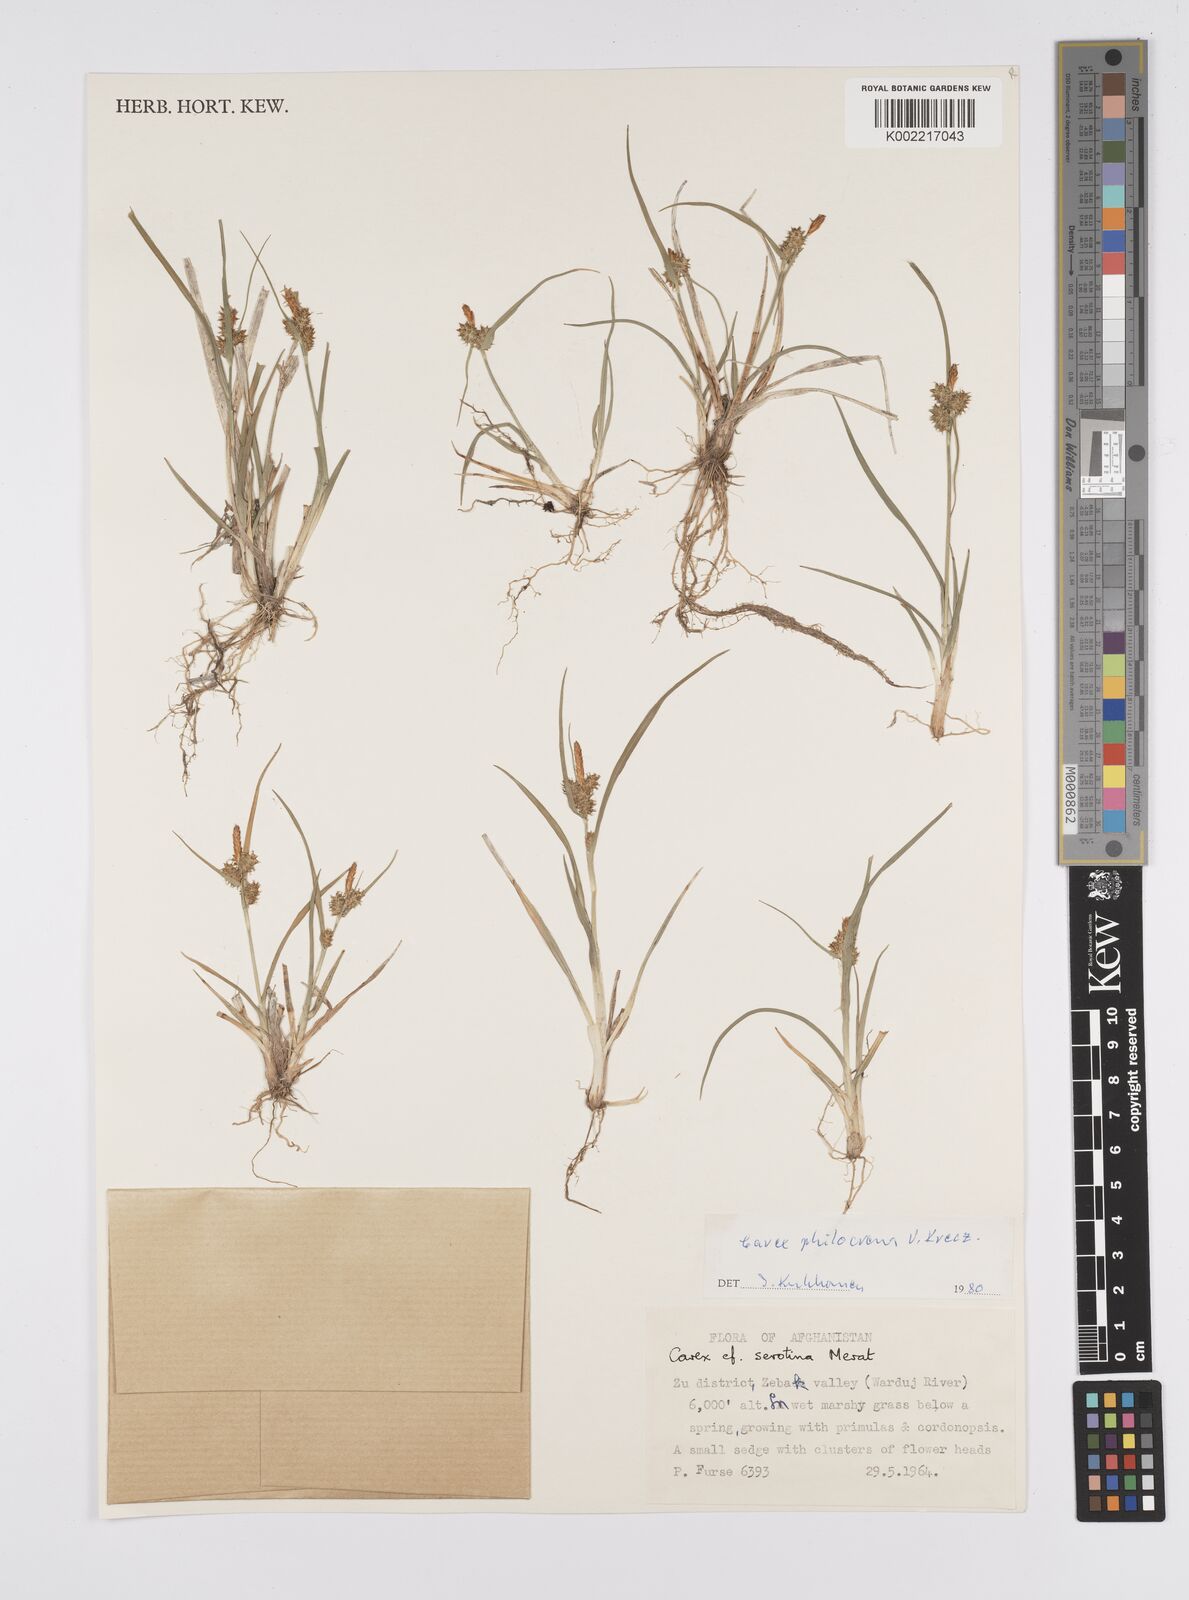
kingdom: Plantae
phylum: Tracheophyta
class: Liliopsida
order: Poales
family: Cyperaceae
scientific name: Cyperaceae
